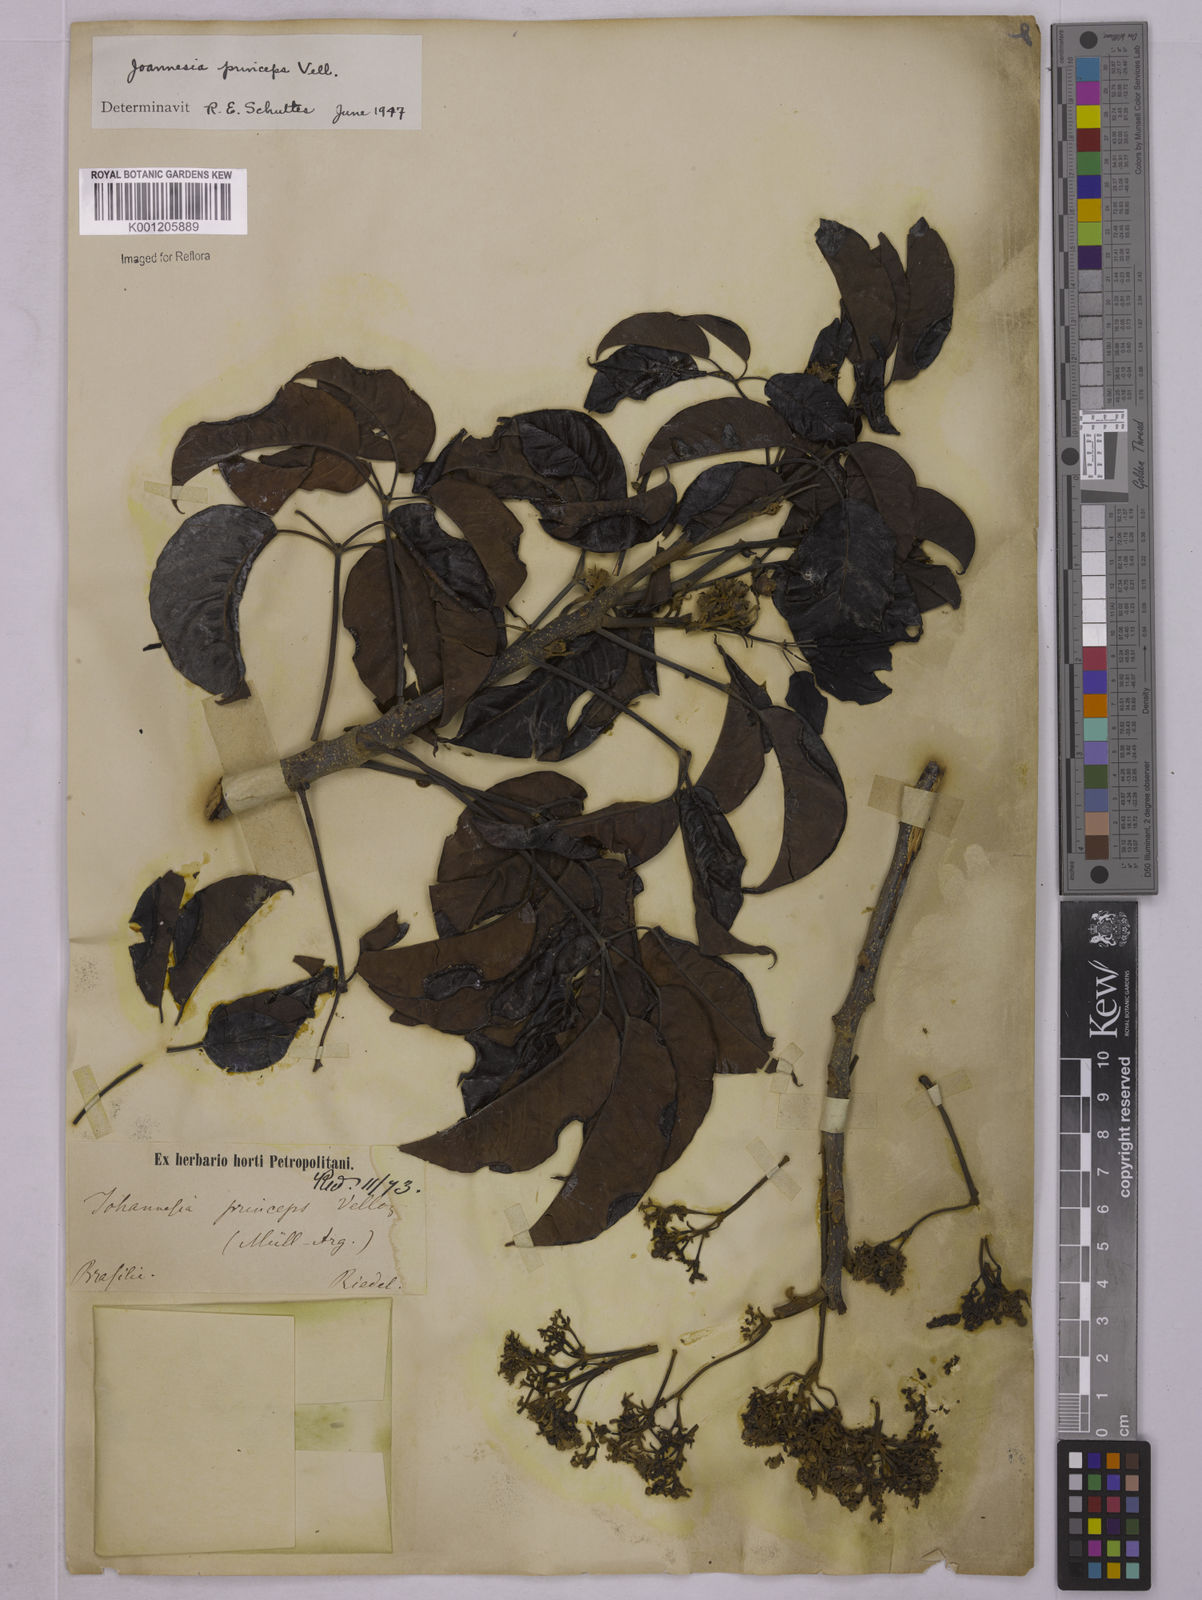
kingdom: Plantae
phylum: Tracheophyta
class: Magnoliopsida
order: Malpighiales
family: Euphorbiaceae
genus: Joannesia
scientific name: Joannesia princeps
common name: Arara nut-tree
